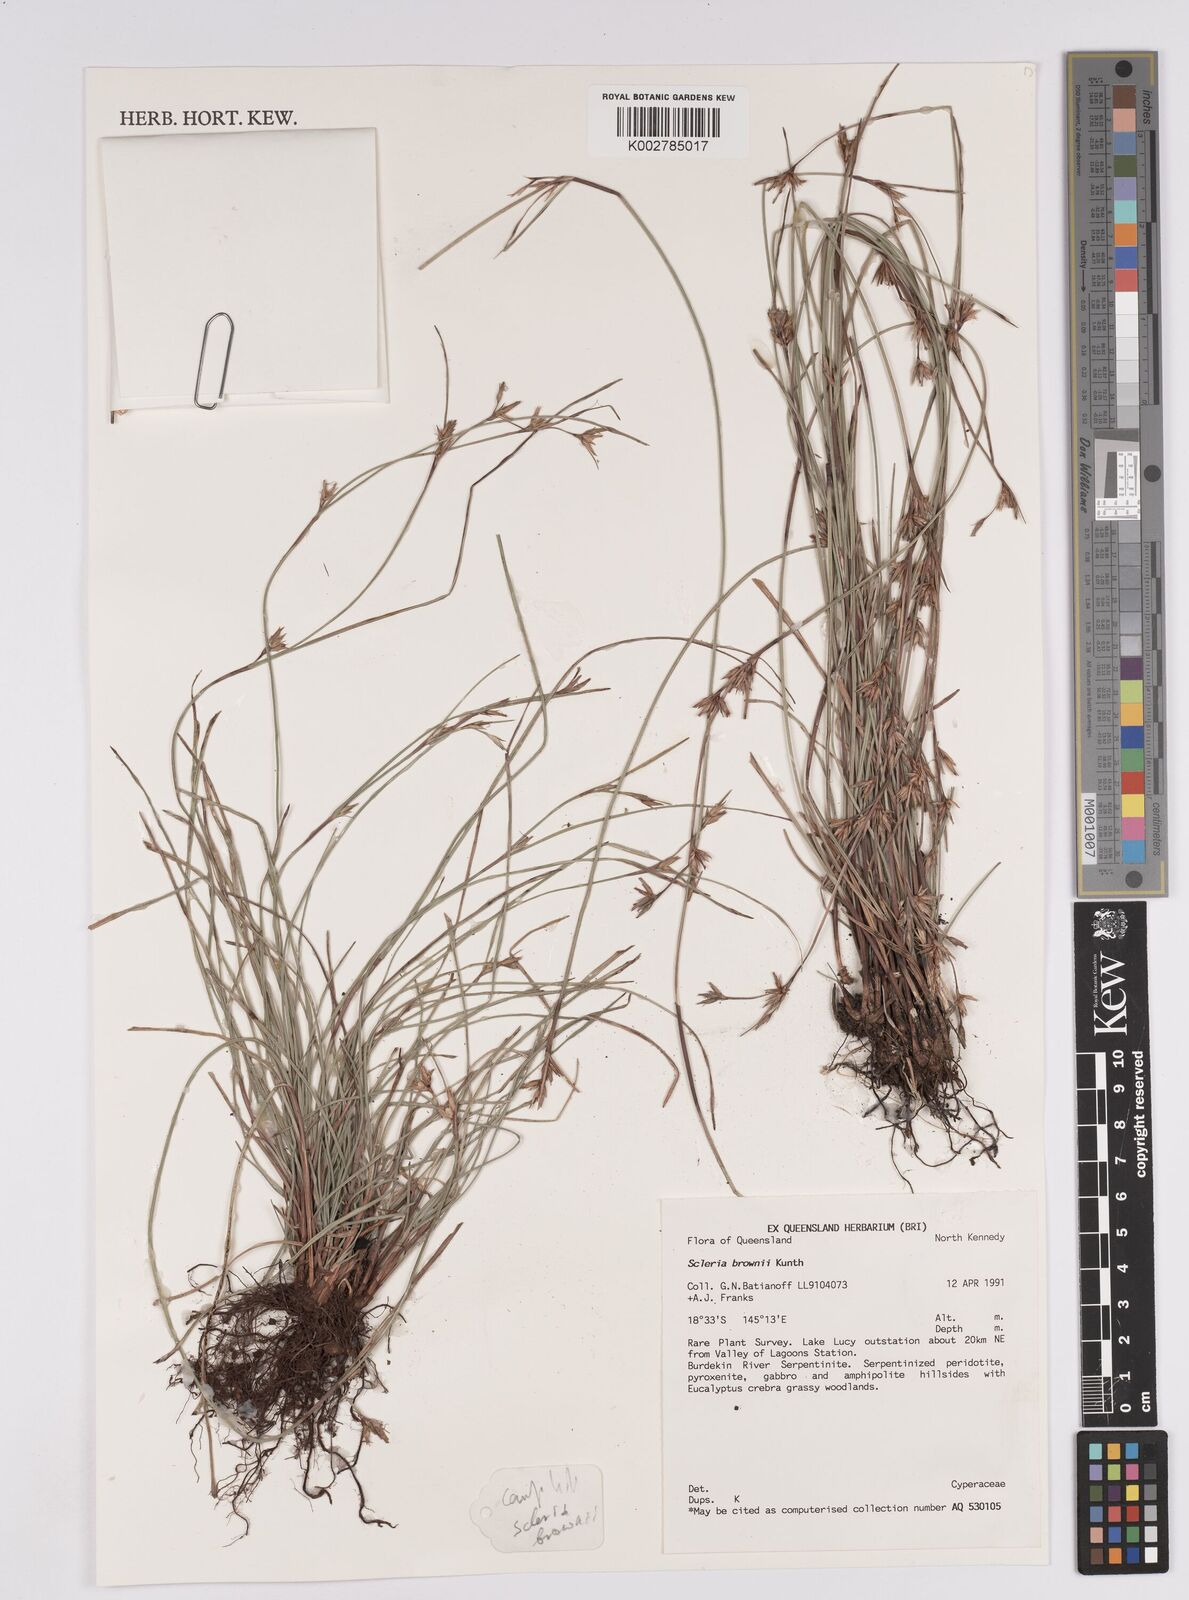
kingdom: Plantae
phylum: Tracheophyta
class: Liliopsida
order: Poales
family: Cyperaceae
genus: Scleria
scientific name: Scleria brownii
